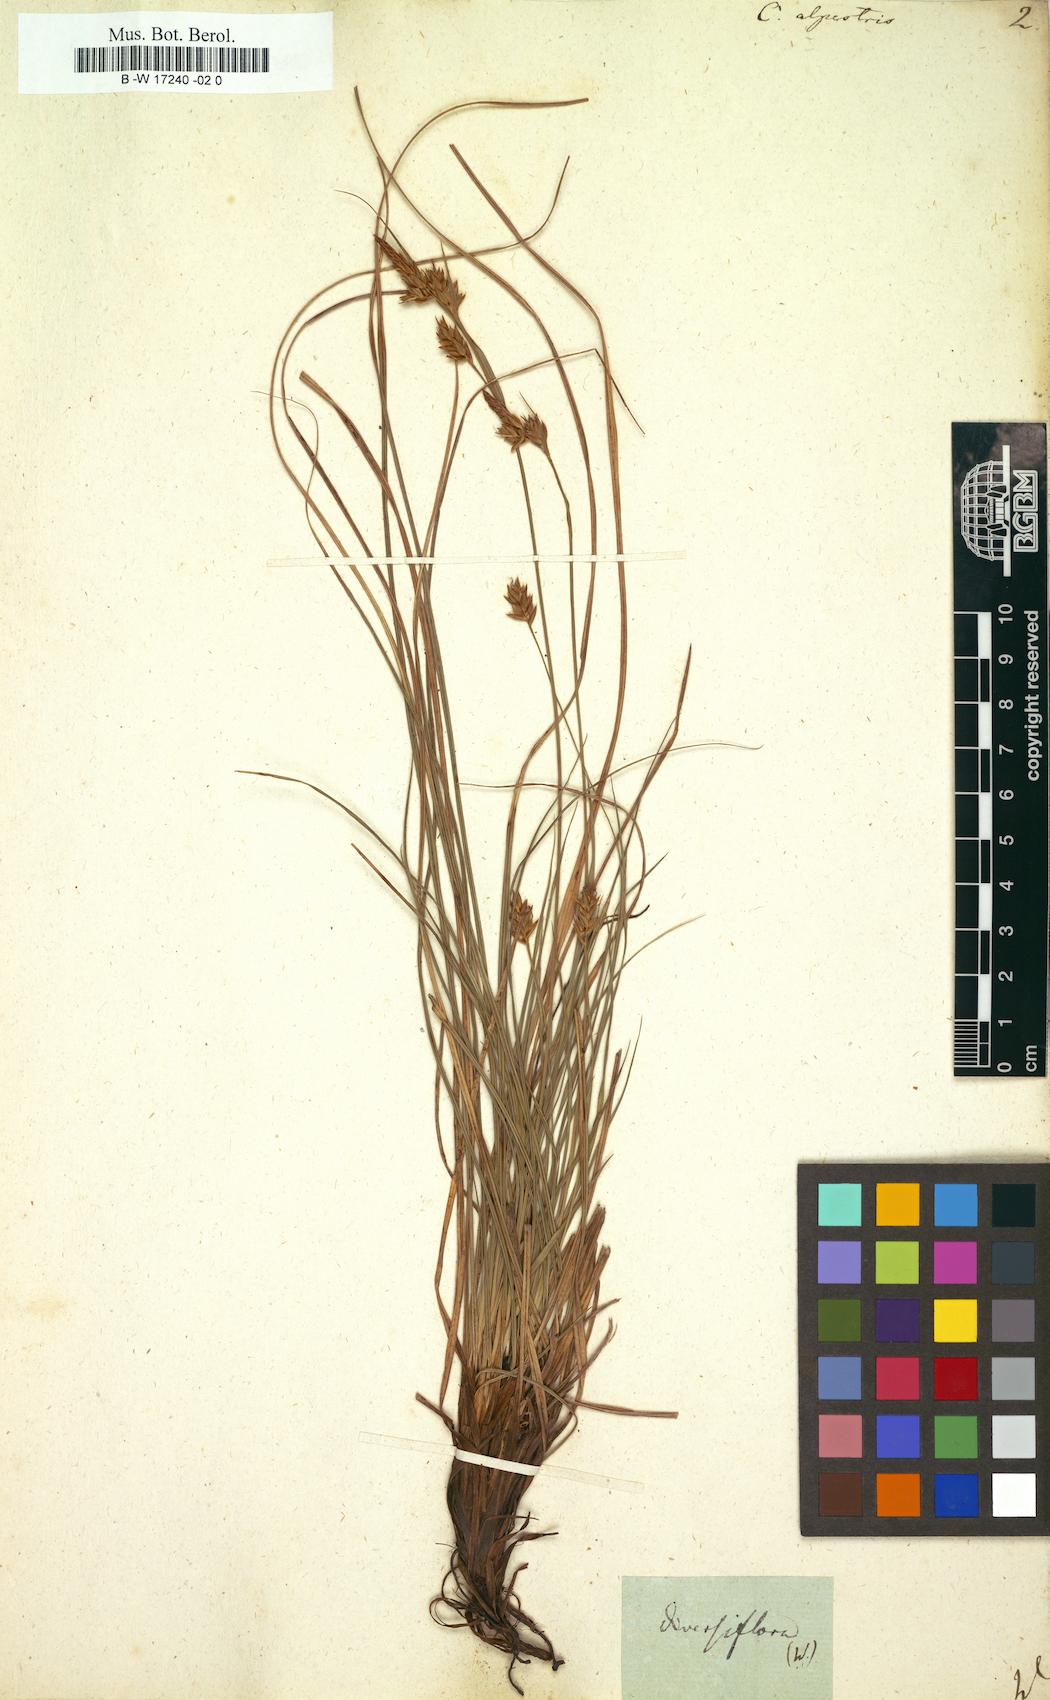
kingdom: Plantae
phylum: Tracheophyta
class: Liliopsida
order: Poales
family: Cyperaceae
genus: Carex
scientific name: Carex halleriana
